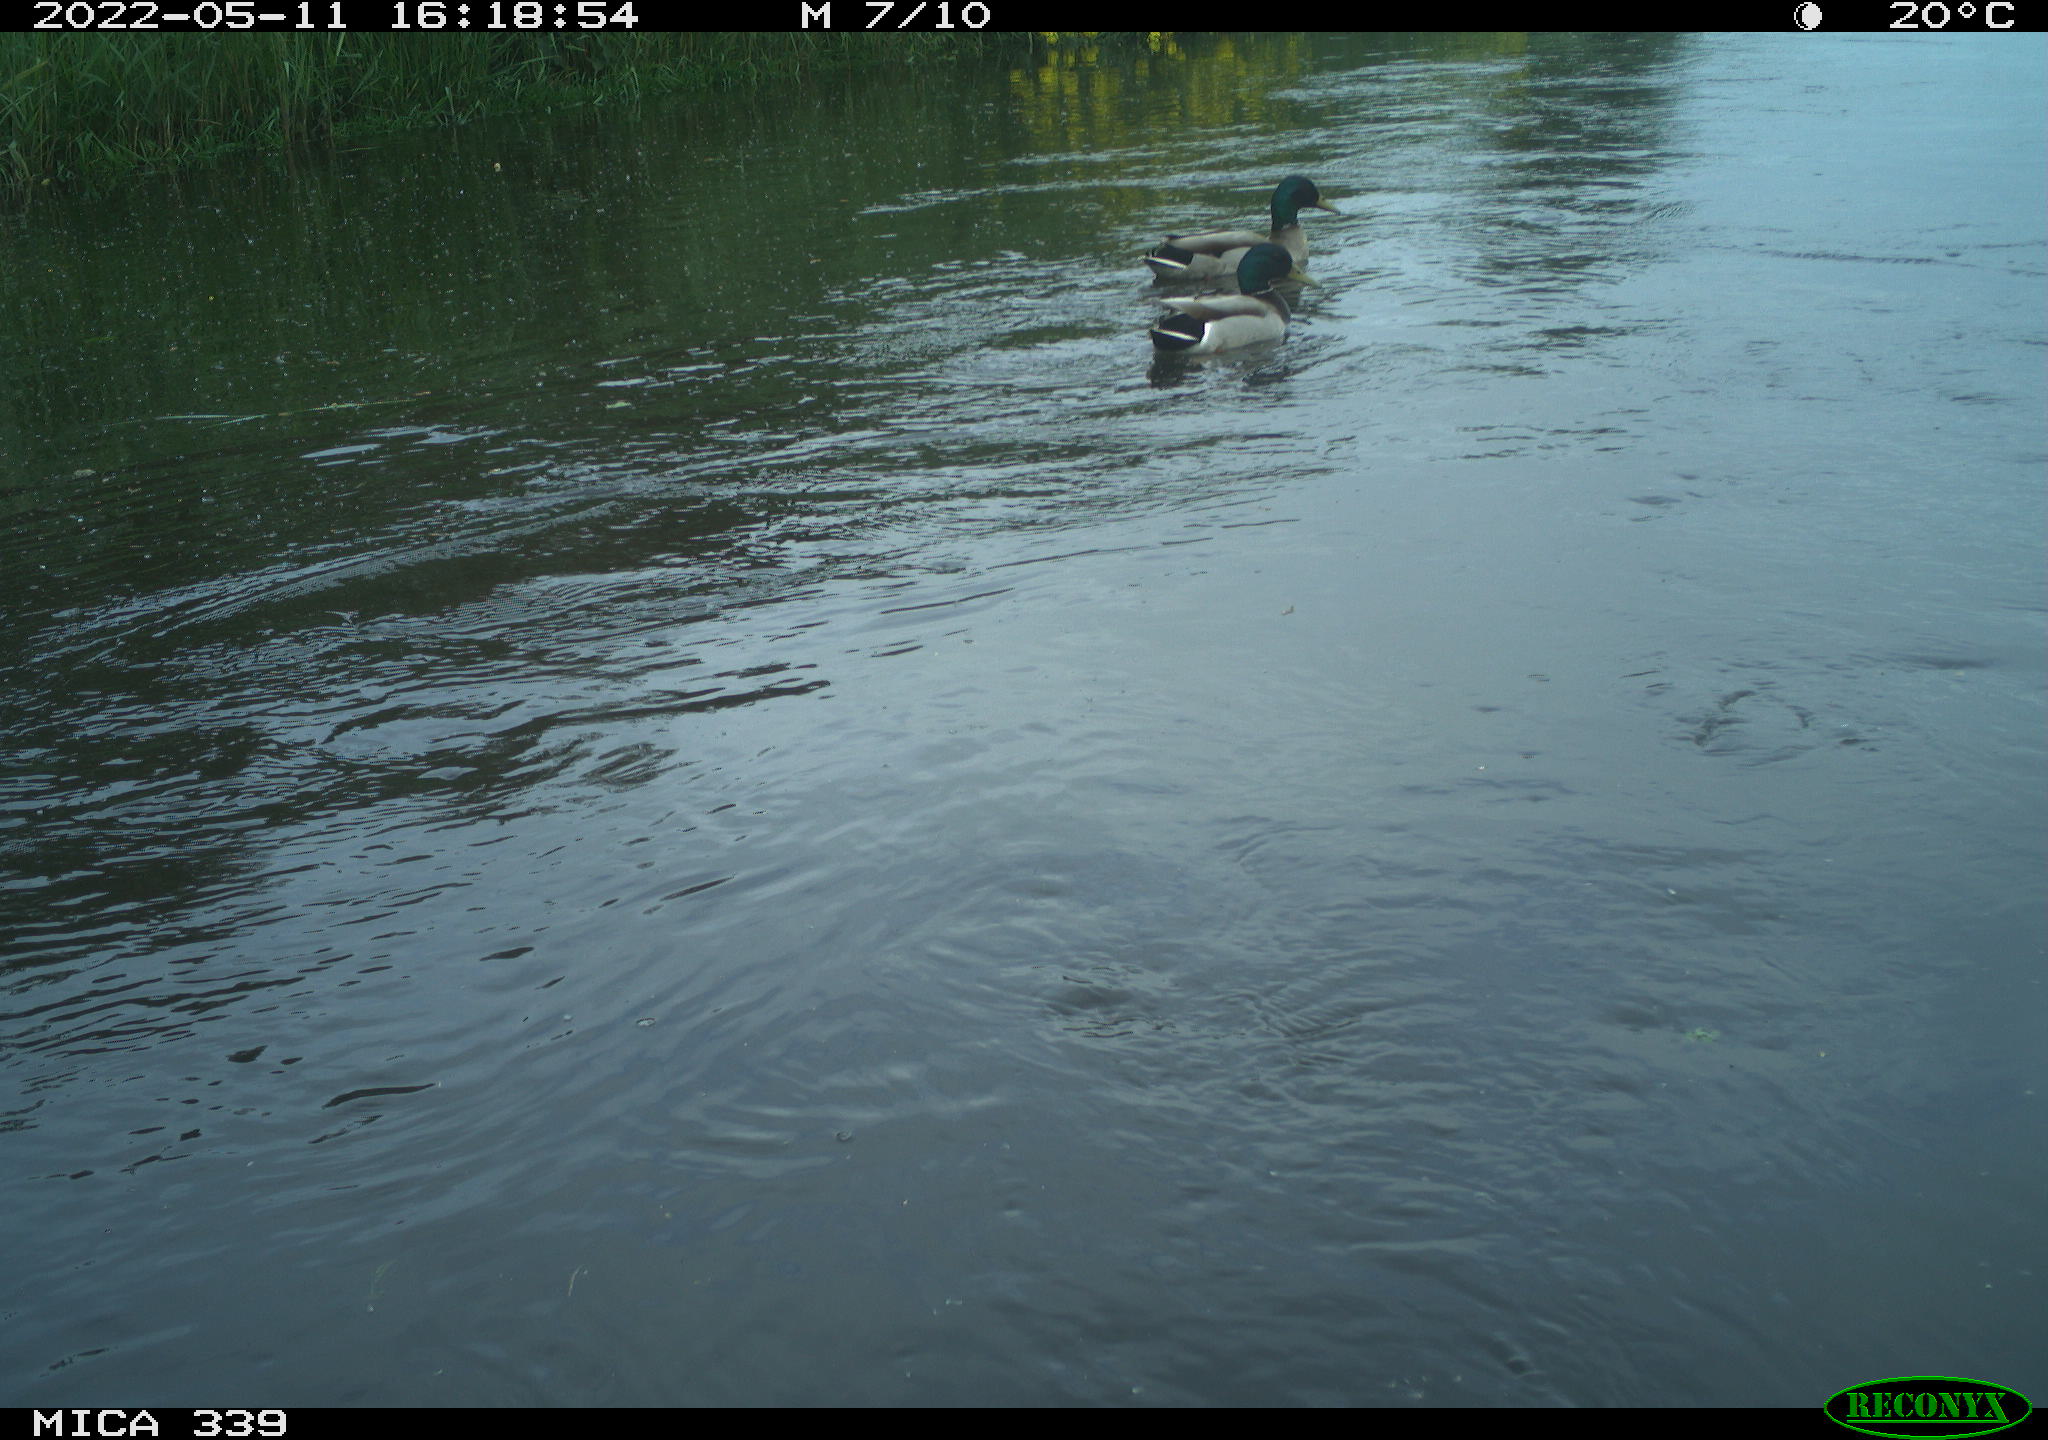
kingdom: Animalia
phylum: Chordata
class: Aves
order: Anseriformes
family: Anatidae
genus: Anas
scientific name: Anas platyrhynchos
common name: Mallard
